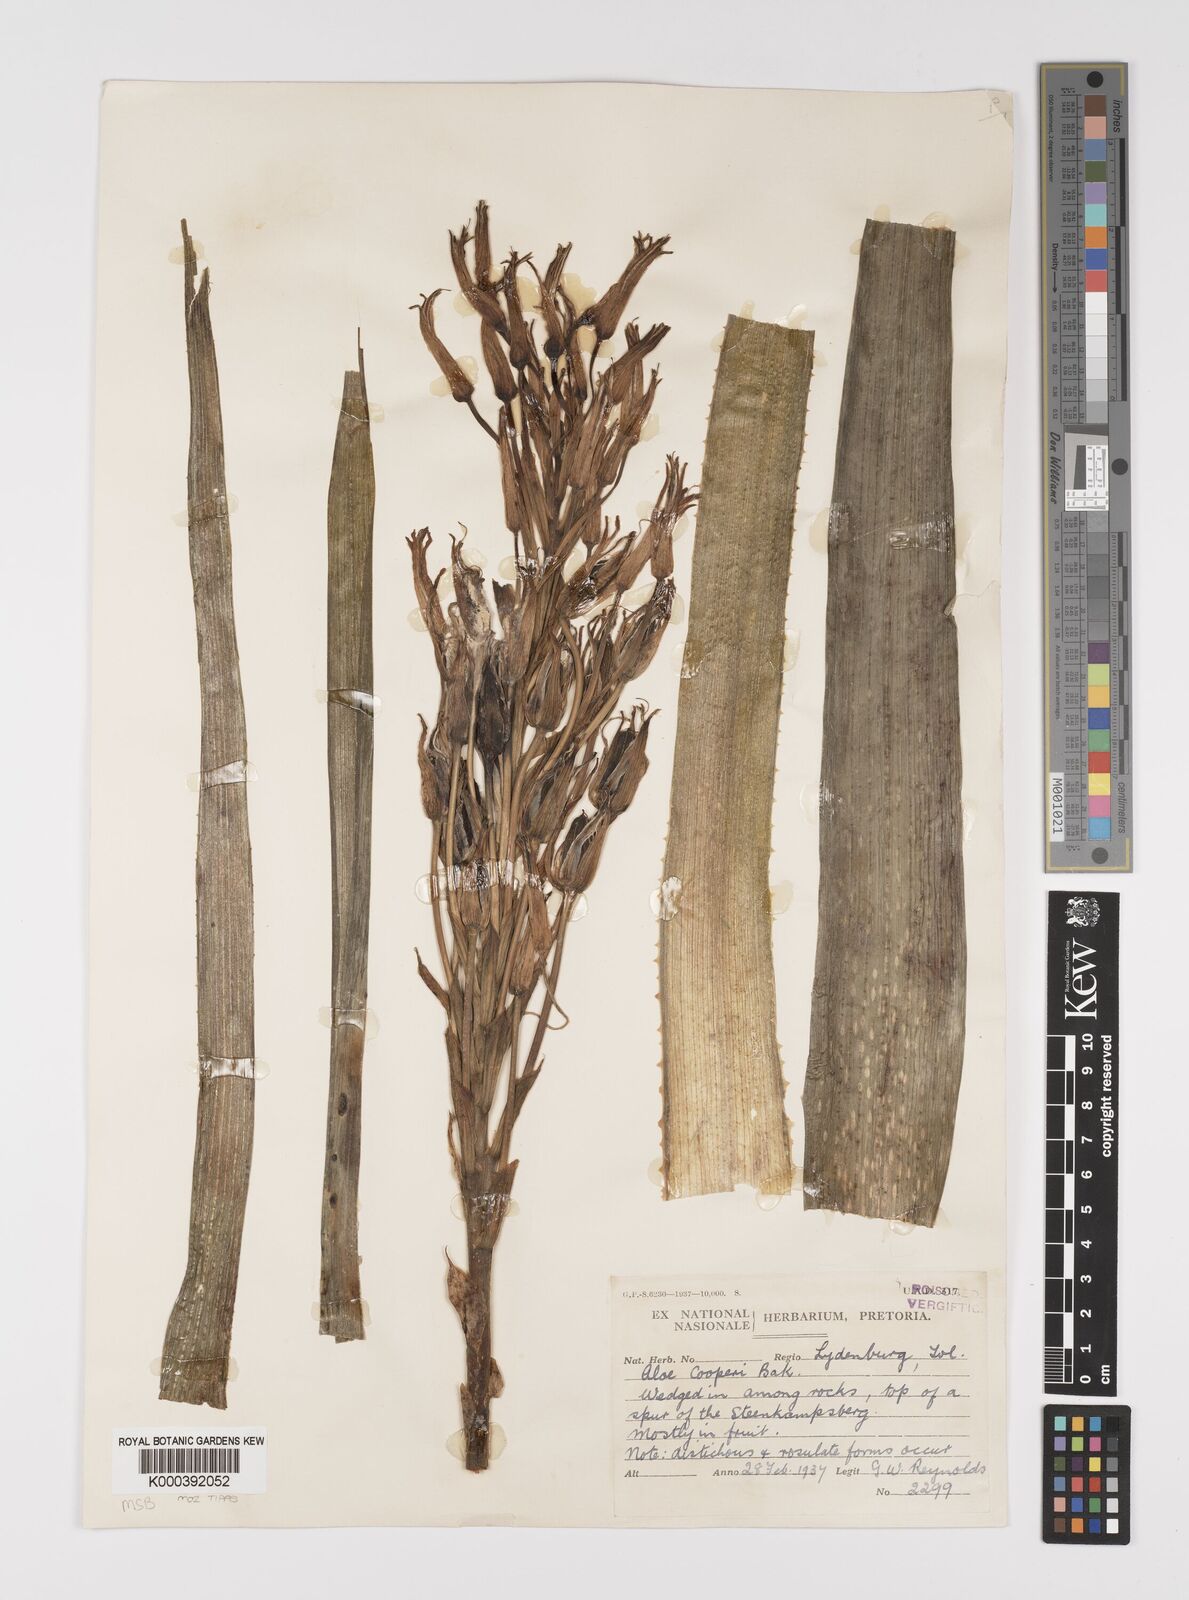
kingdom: Plantae
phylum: Tracheophyta
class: Liliopsida
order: Asparagales
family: Asphodelaceae
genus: Aloe
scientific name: Aloe cooperi
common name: Cooper's aloe
